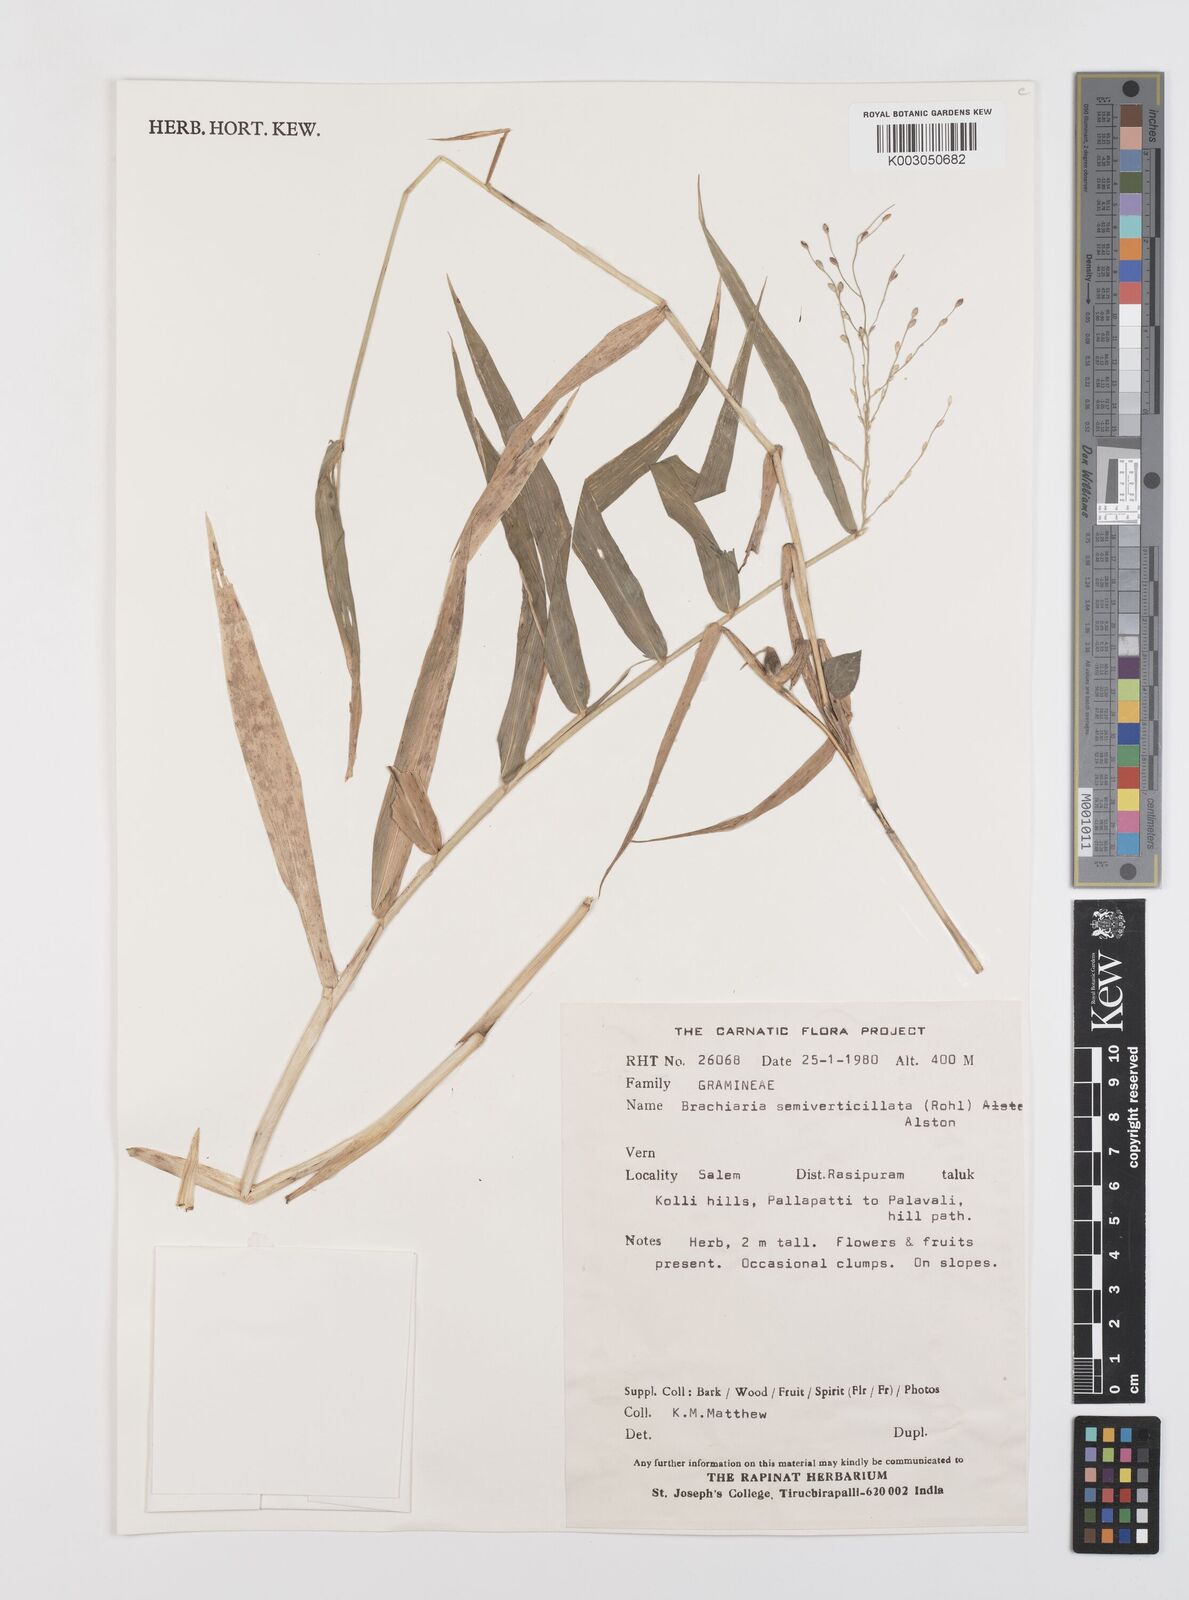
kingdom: Plantae
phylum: Tracheophyta
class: Liliopsida
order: Poales
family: Poaceae
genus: Urochloa
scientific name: Urochloa Brachiaria semiverticillata
